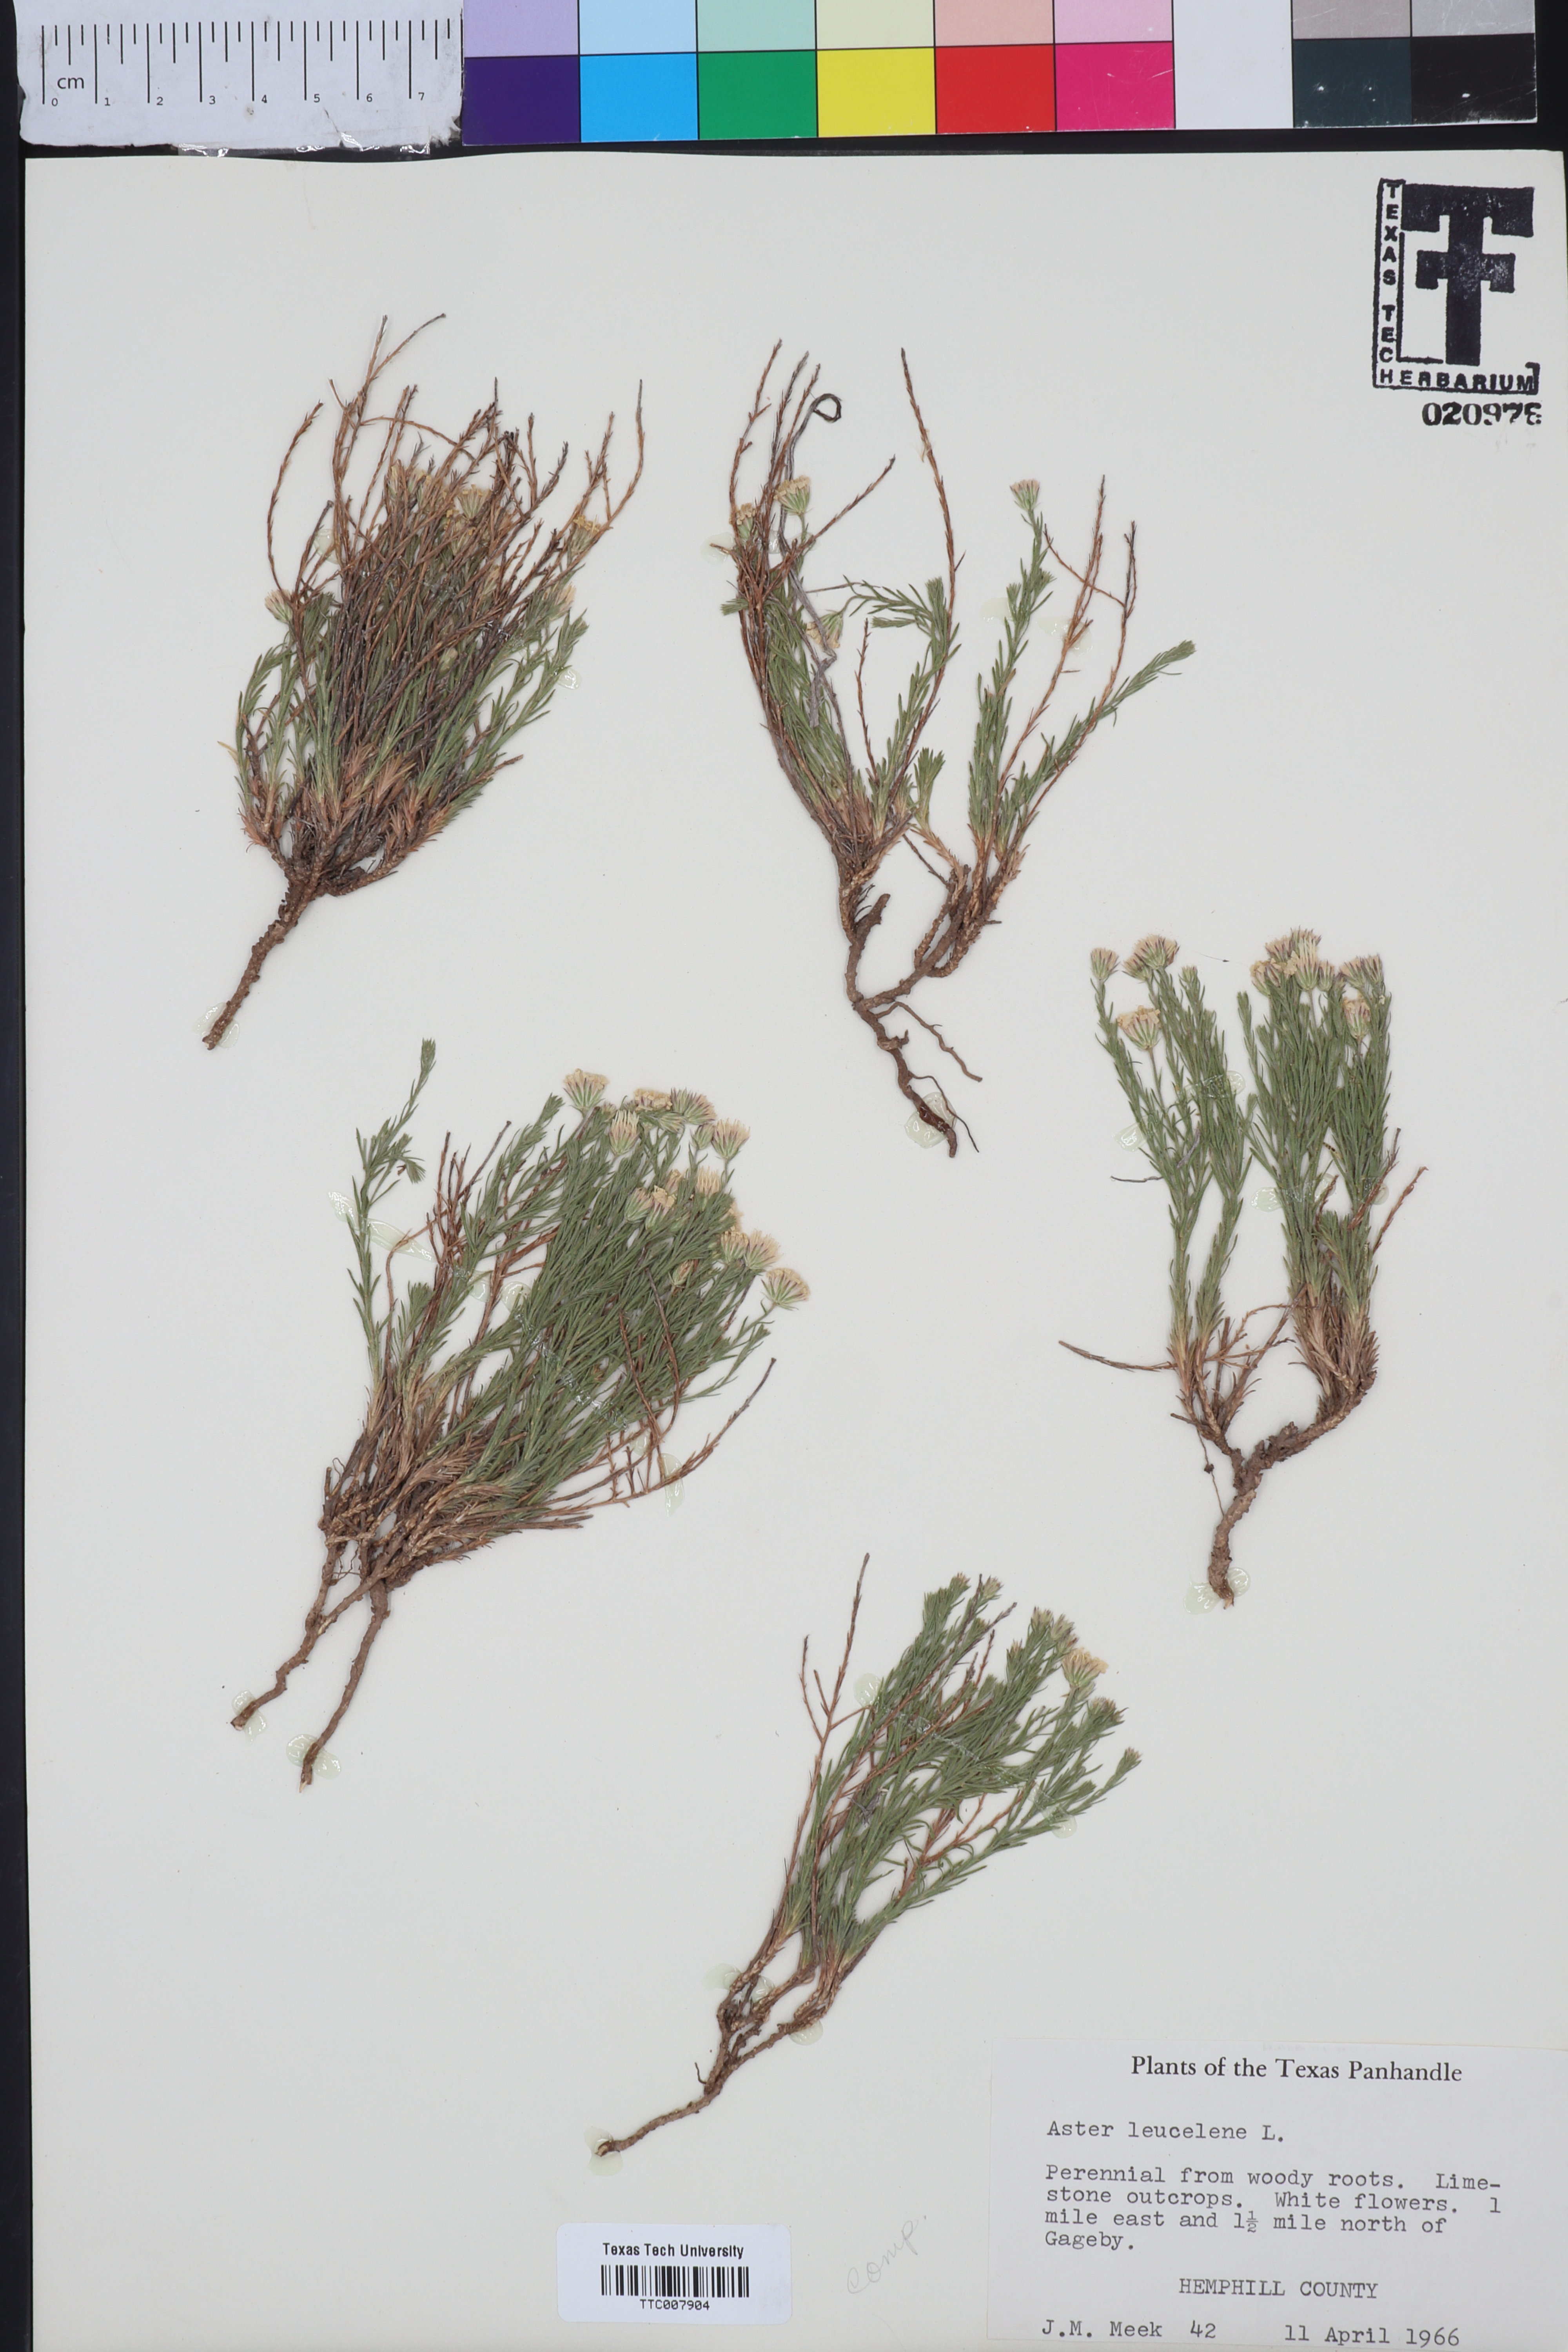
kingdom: Plantae
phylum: Tracheophyta
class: Magnoliopsida
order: Asterales
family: Asteraceae
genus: Chaetopappa
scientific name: Chaetopappa ericoides
